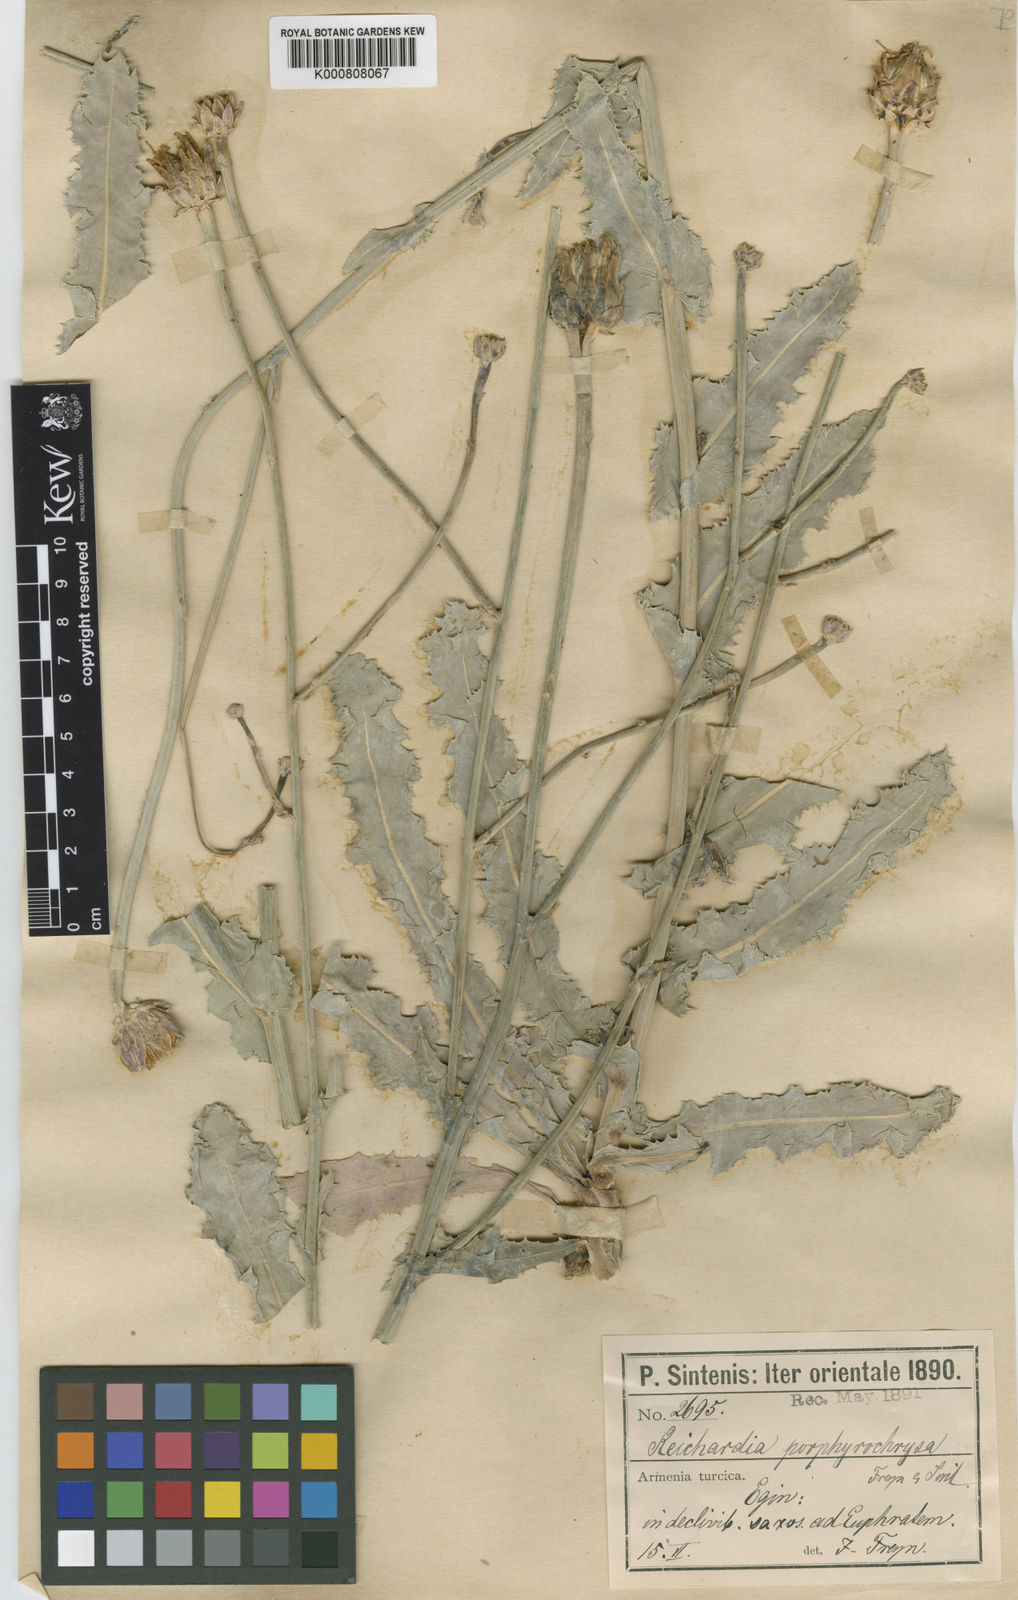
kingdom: Plantae
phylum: Tracheophyta
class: Magnoliopsida
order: Asterales
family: Asteraceae
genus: Reichardia
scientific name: Reichardia
